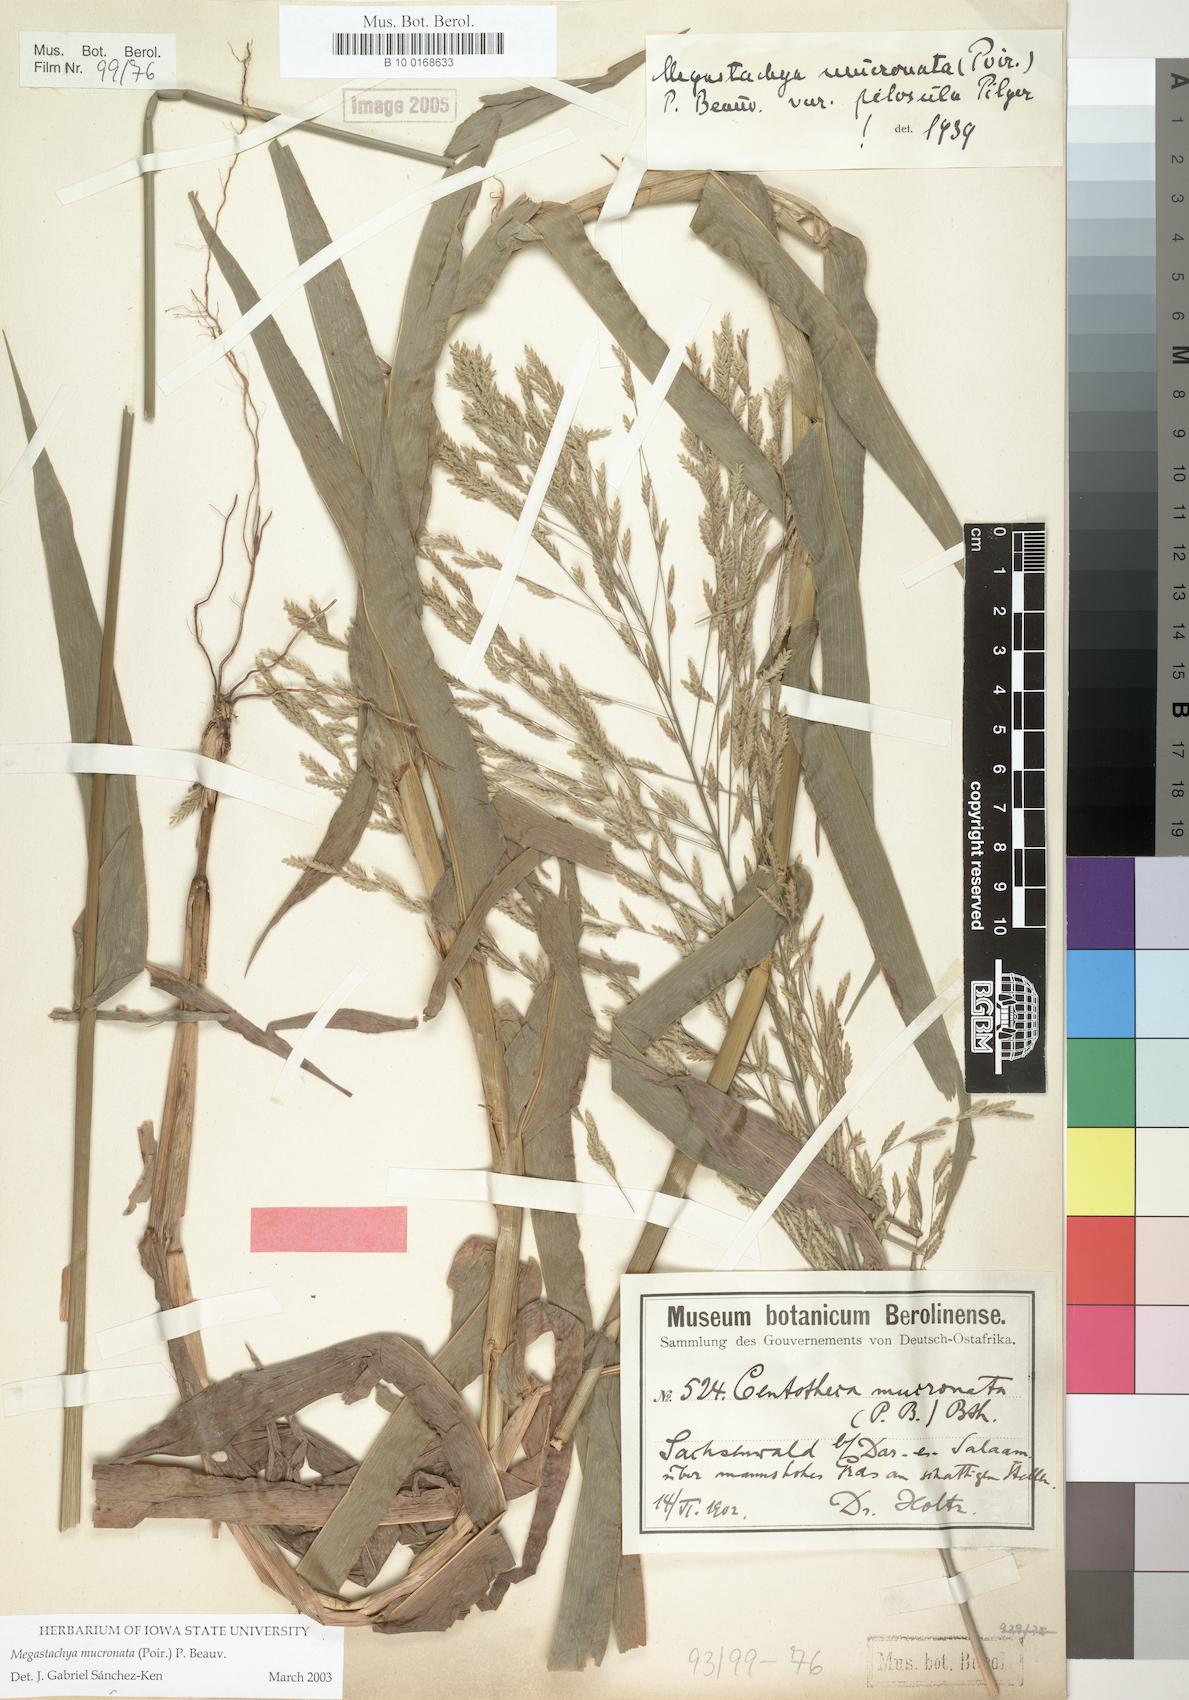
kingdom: Plantae
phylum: Tracheophyta
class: Liliopsida
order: Poales
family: Poaceae
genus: Megastachya
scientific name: Megastachya mucronata
